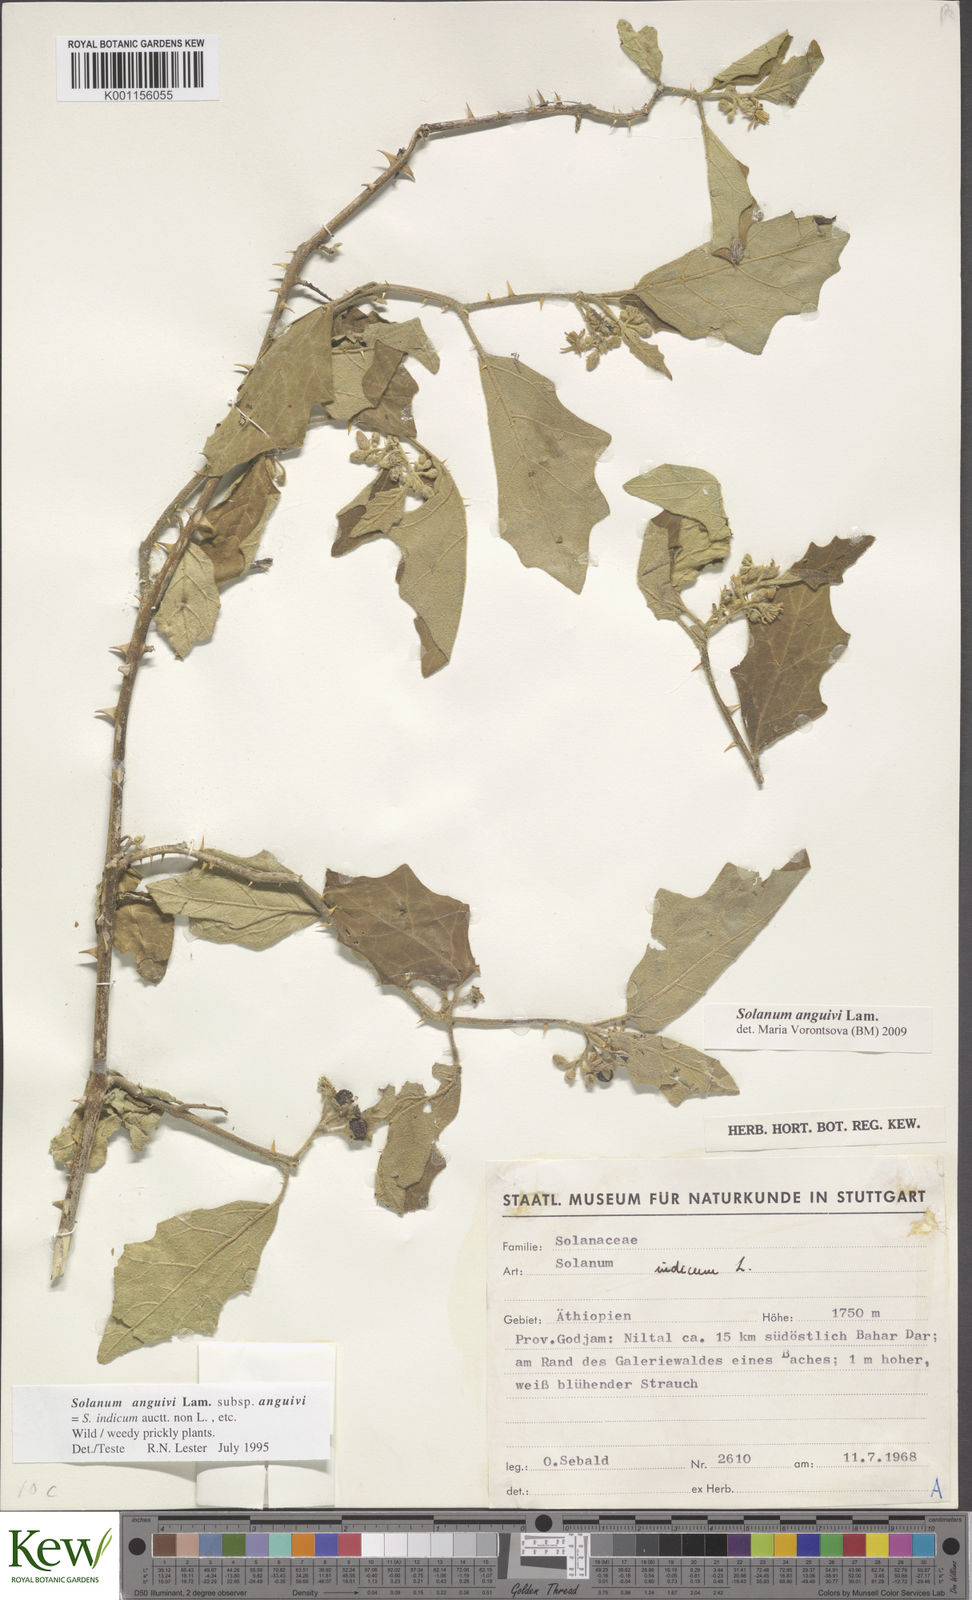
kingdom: Plantae
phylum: Tracheophyta
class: Magnoliopsida
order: Solanales
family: Solanaceae
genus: Solanum
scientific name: Solanum anguivi
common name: Forest bitterberry
